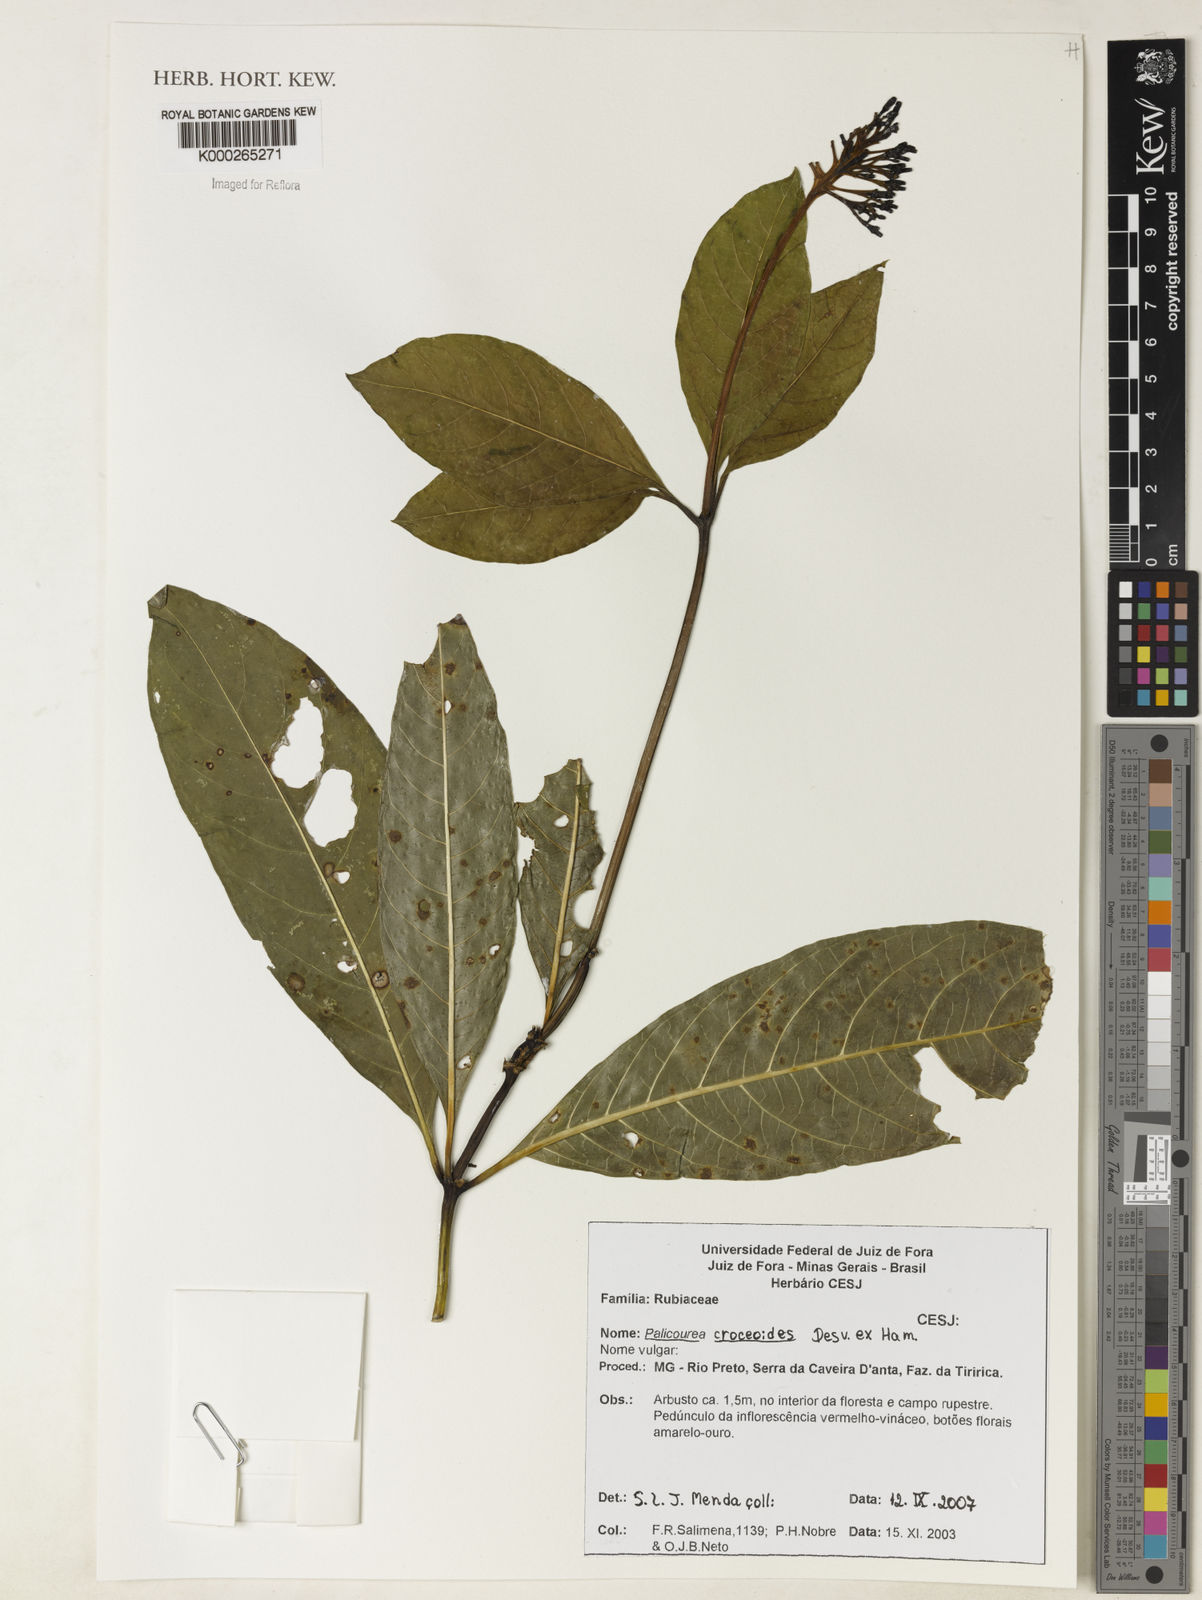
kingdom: Plantae
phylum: Tracheophyta
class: Magnoliopsida
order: Gentianales
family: Rubiaceae
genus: Palicourea
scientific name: Palicourea croceoides
